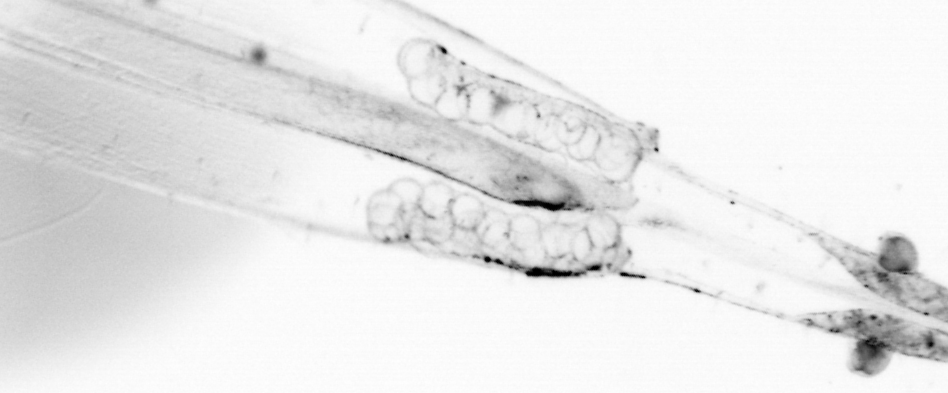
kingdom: Animalia
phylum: Chaetognatha
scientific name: Chaetognatha
